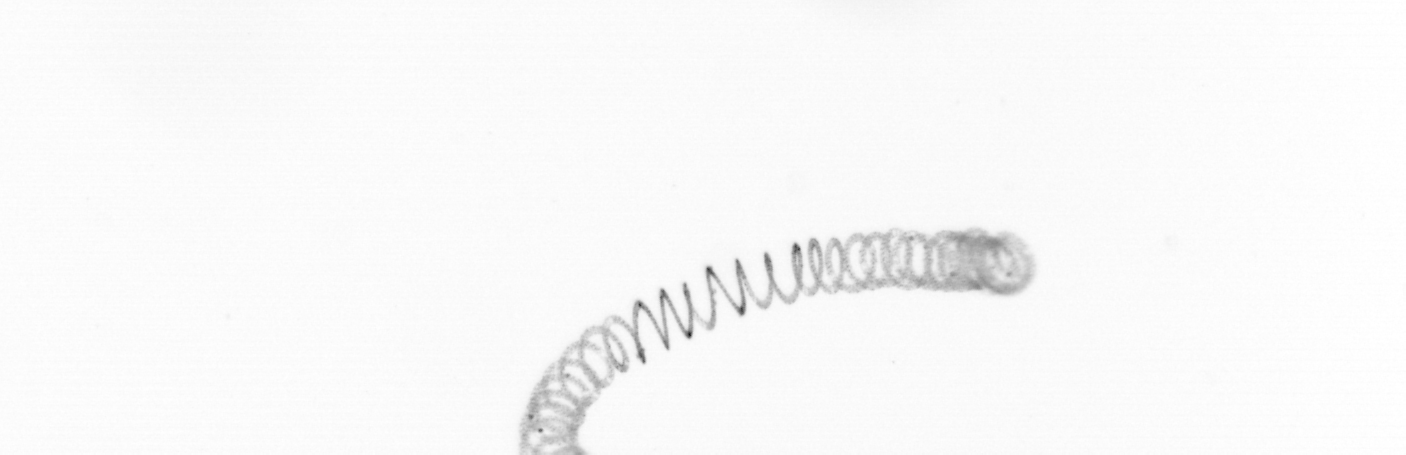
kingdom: Chromista
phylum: Ochrophyta
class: Bacillariophyceae
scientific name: Bacillariophyceae
